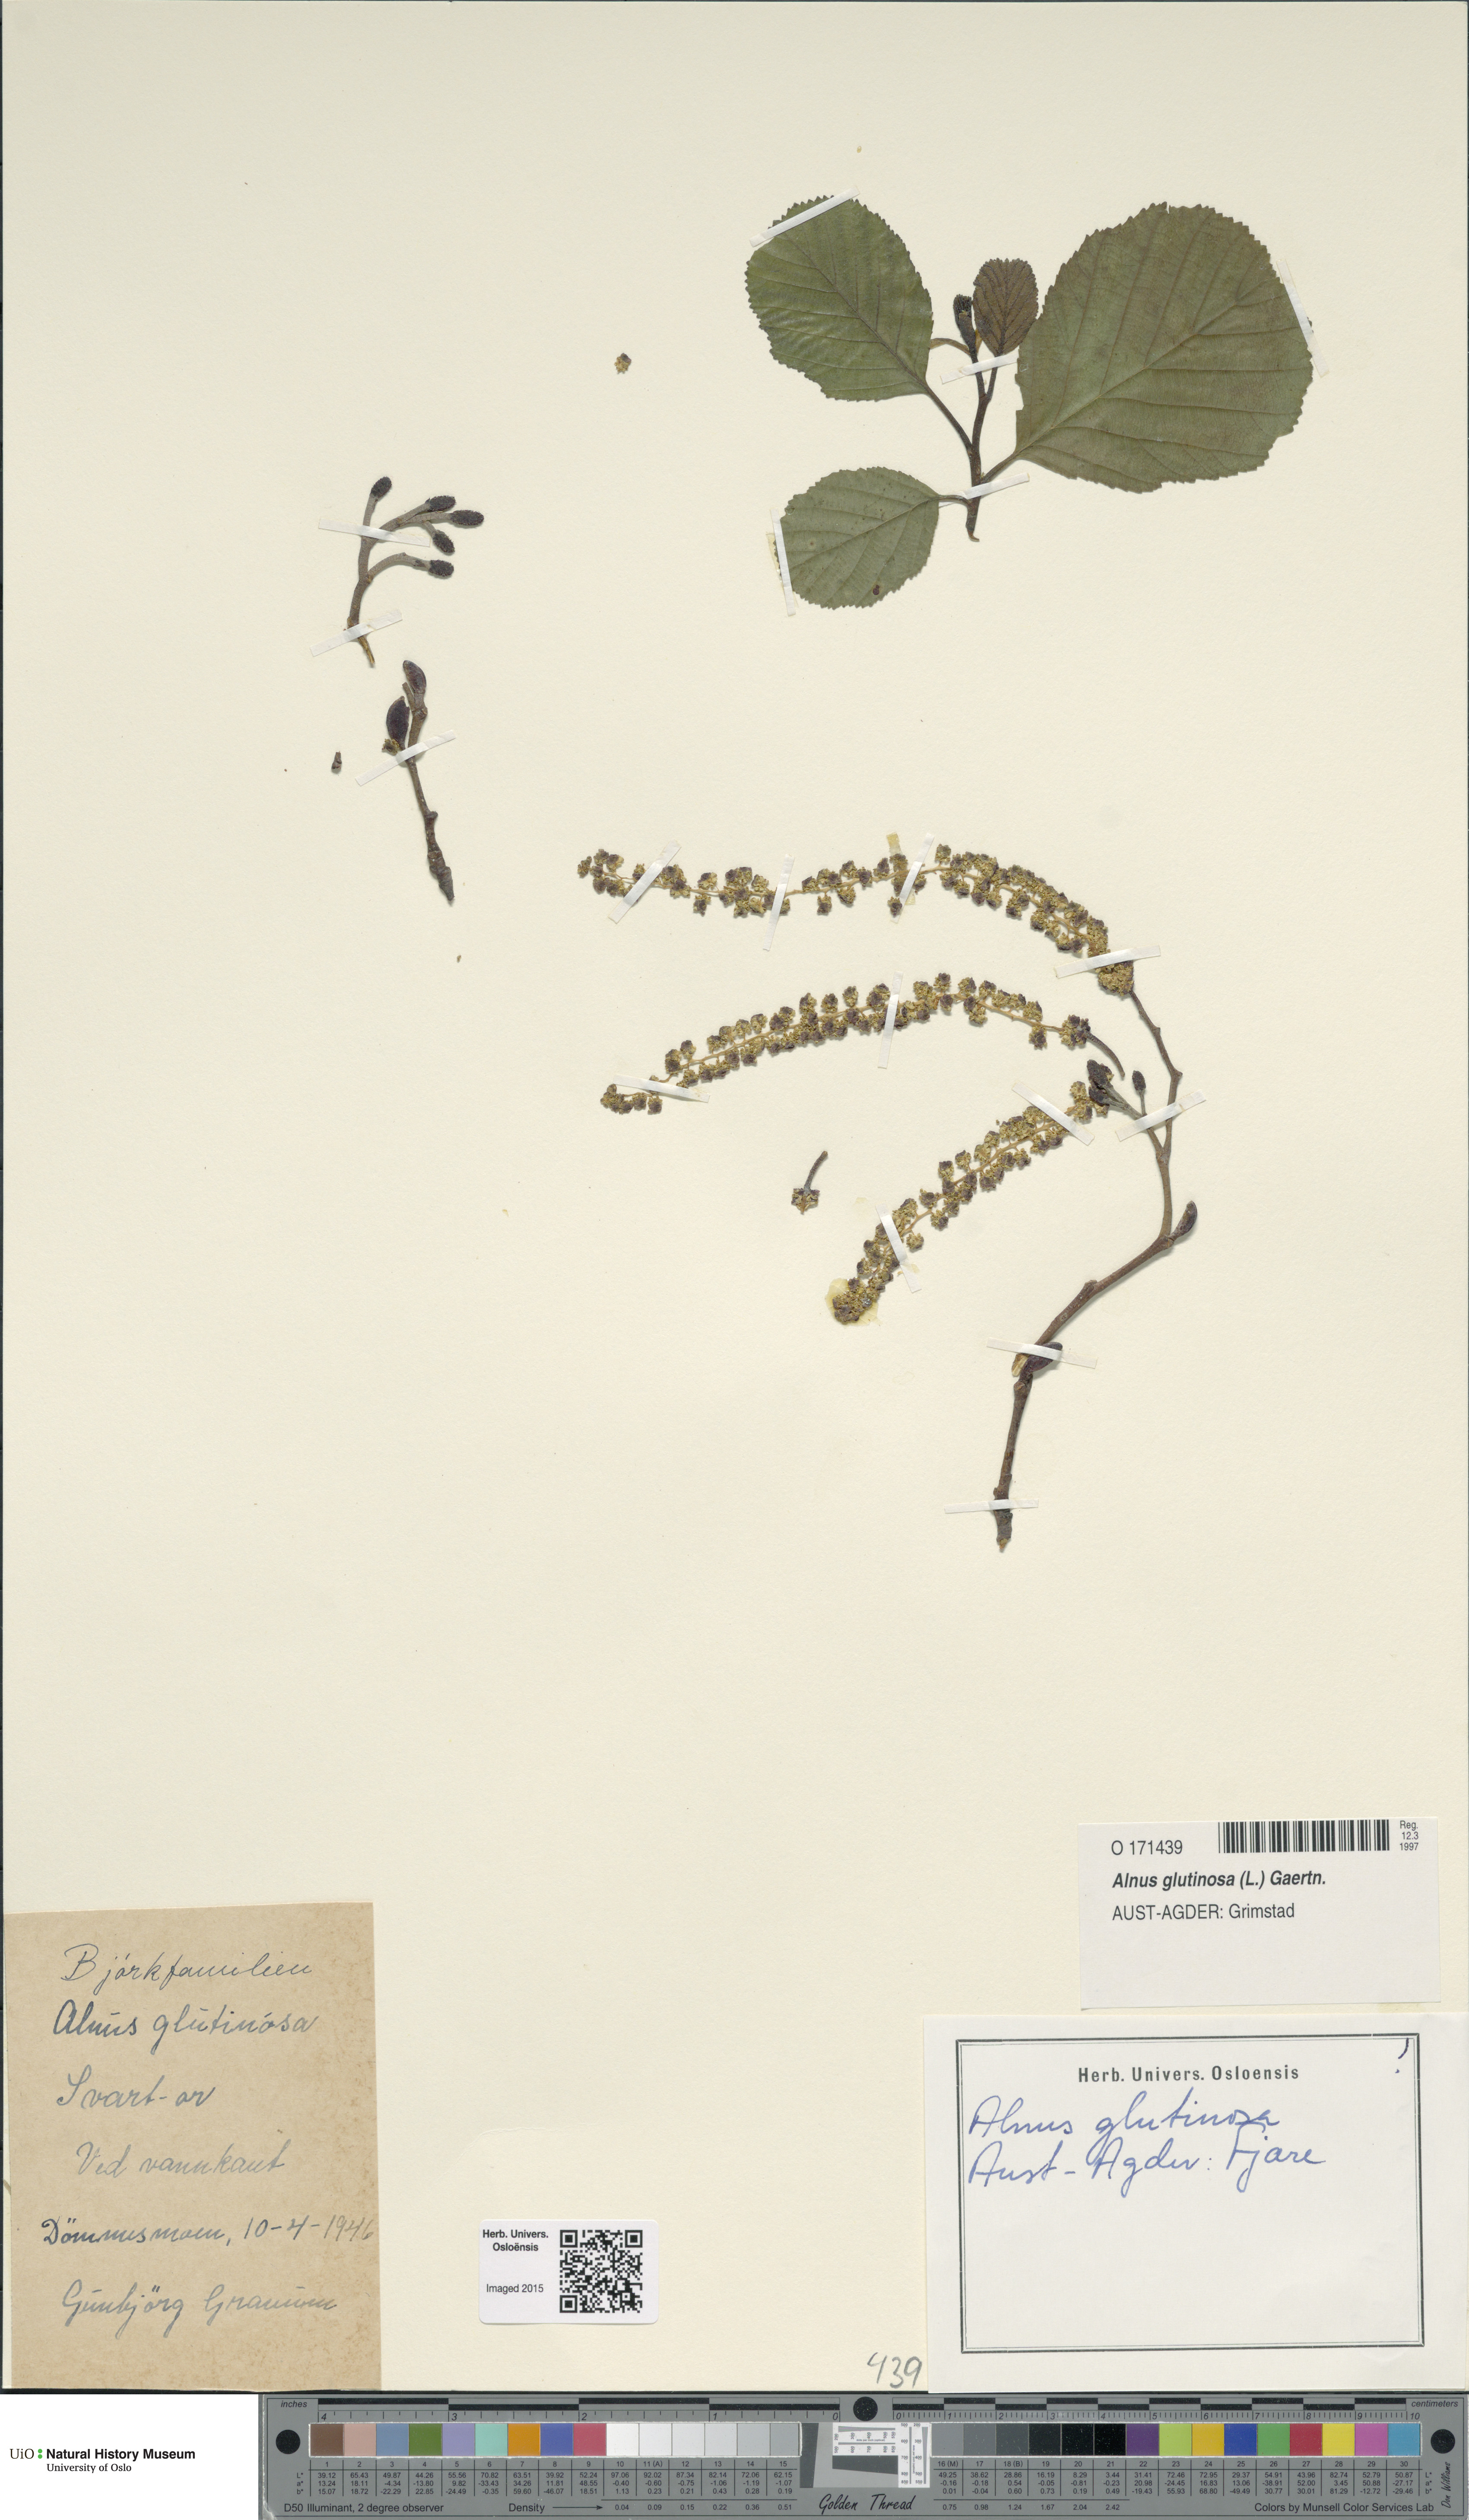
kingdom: Plantae
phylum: Tracheophyta
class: Magnoliopsida
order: Fagales
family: Betulaceae
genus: Alnus
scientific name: Alnus glutinosa
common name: Black alder
